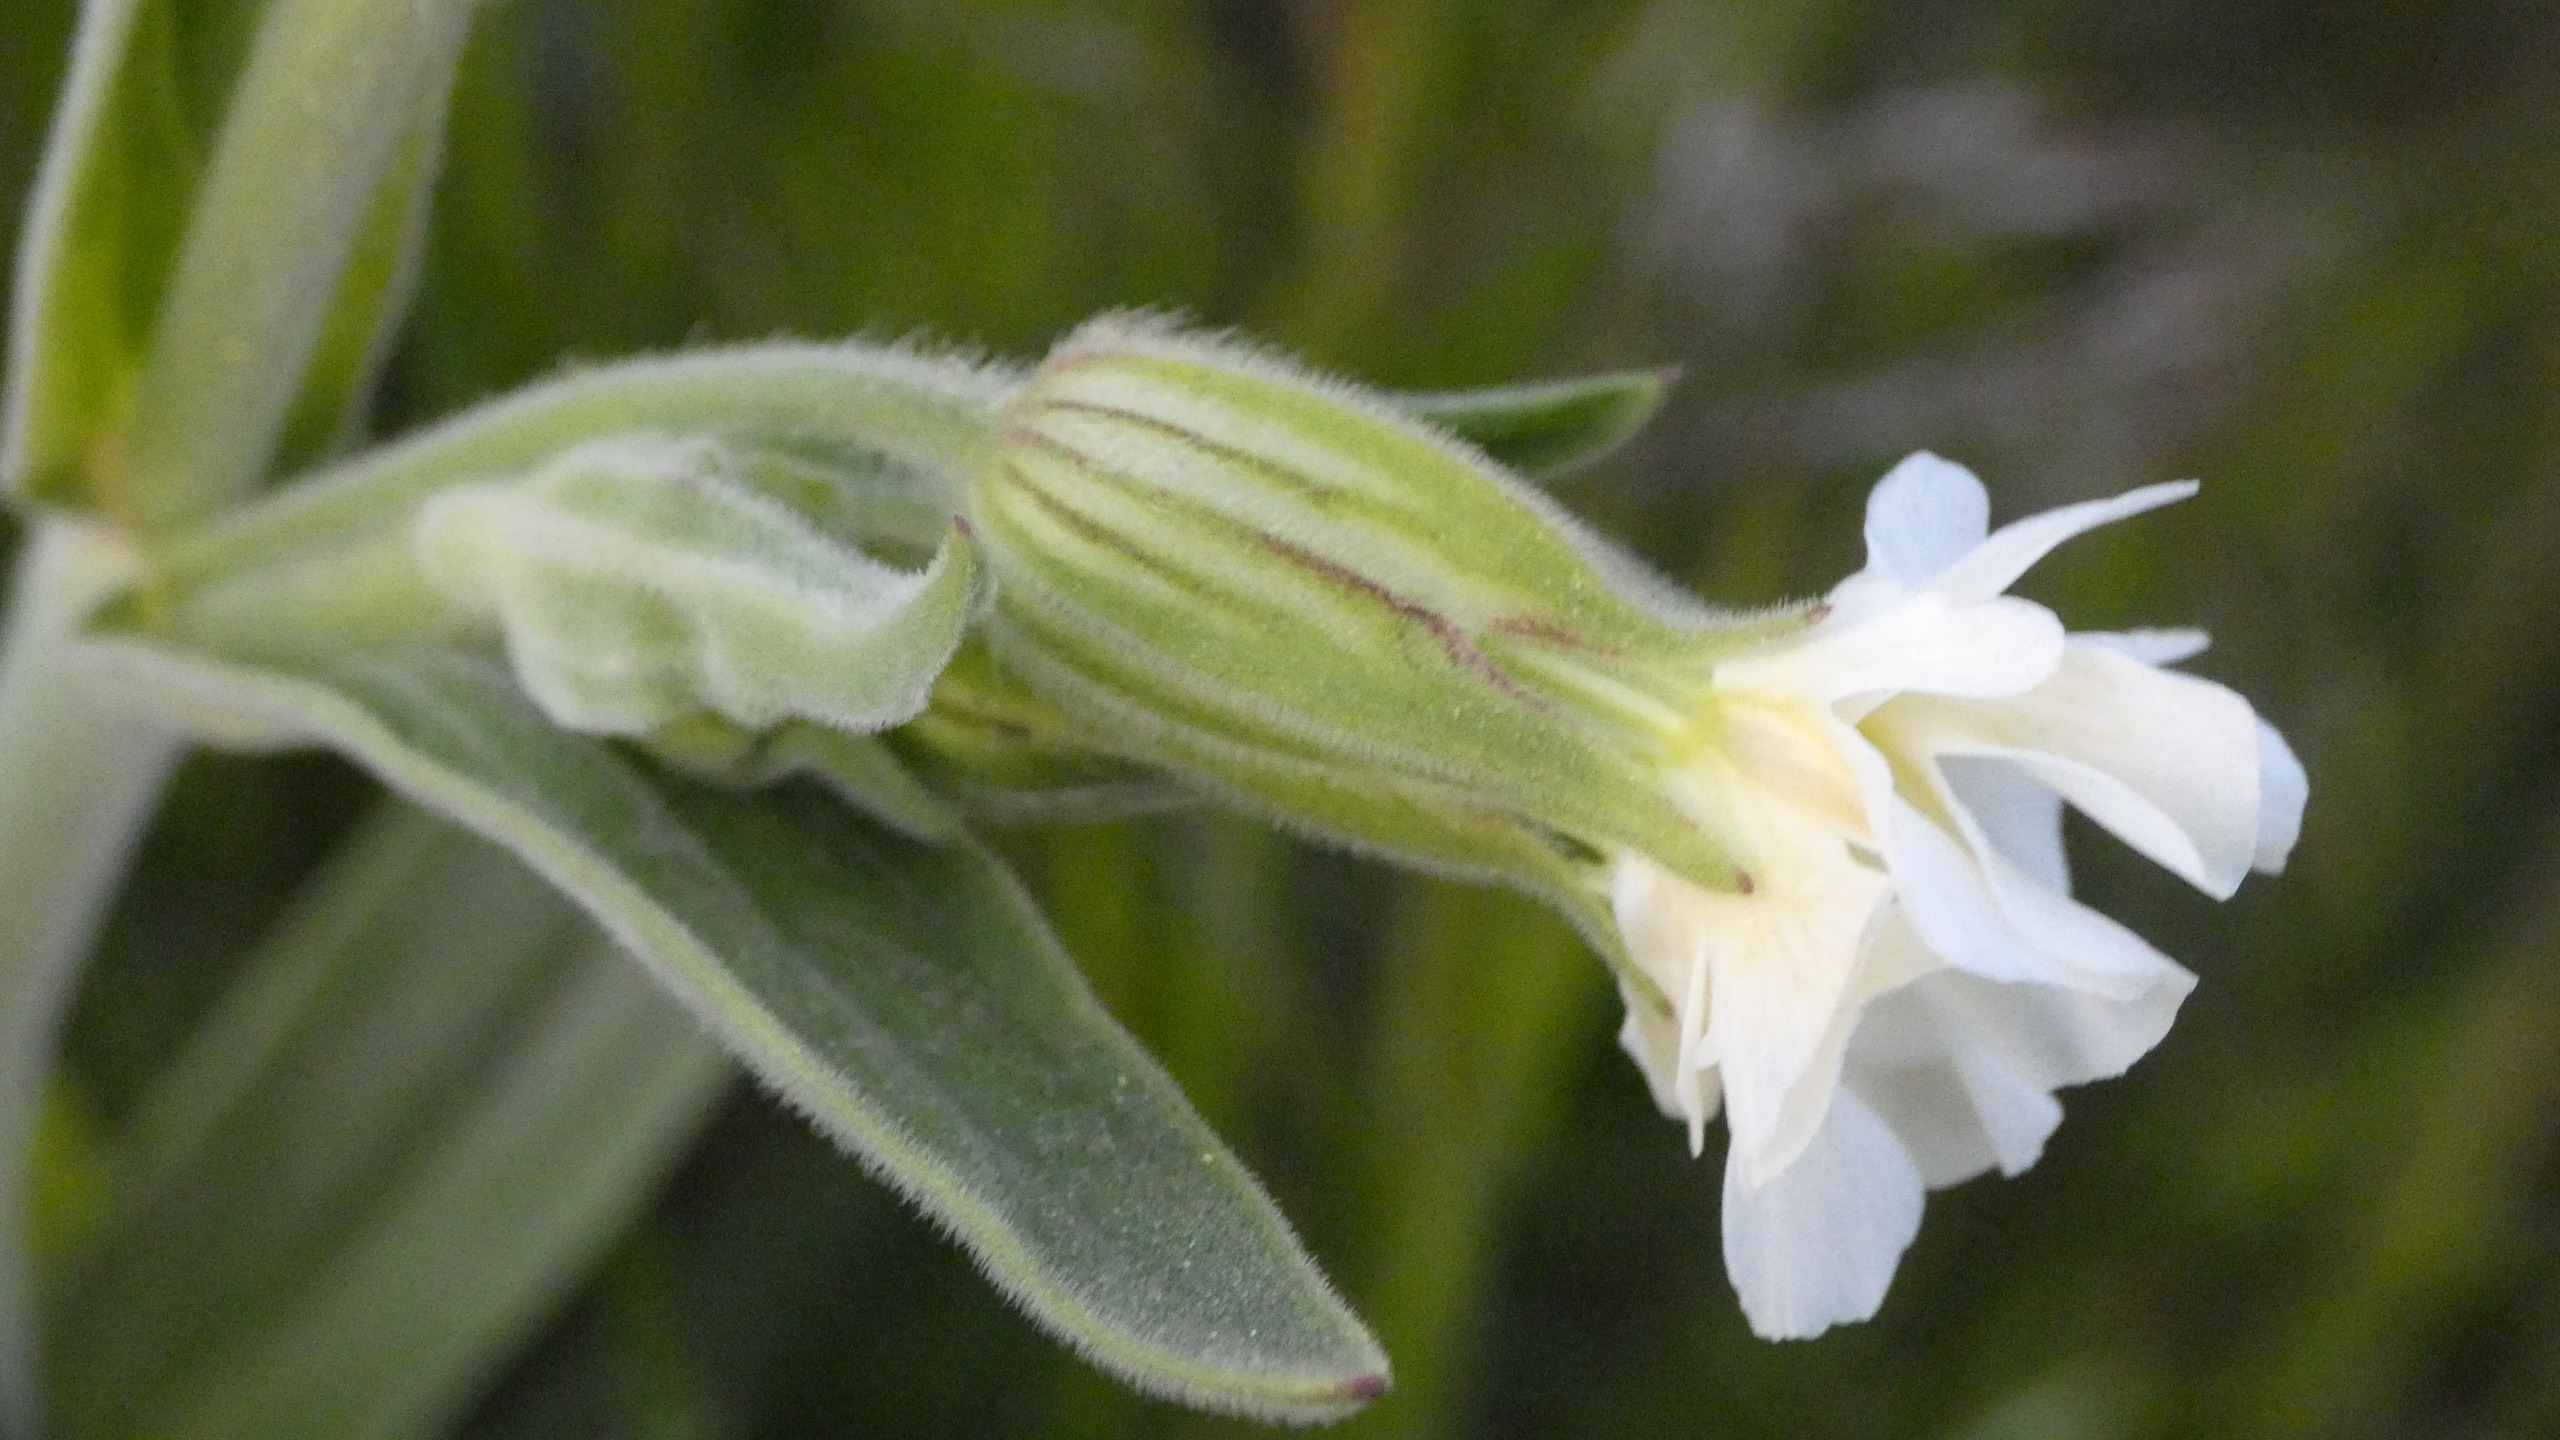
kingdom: Plantae
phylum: Tracheophyta
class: Magnoliopsida
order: Caryophyllales
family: Caryophyllaceae
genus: Silene
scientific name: Silene latifolia
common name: Aftenpragtstjerne
